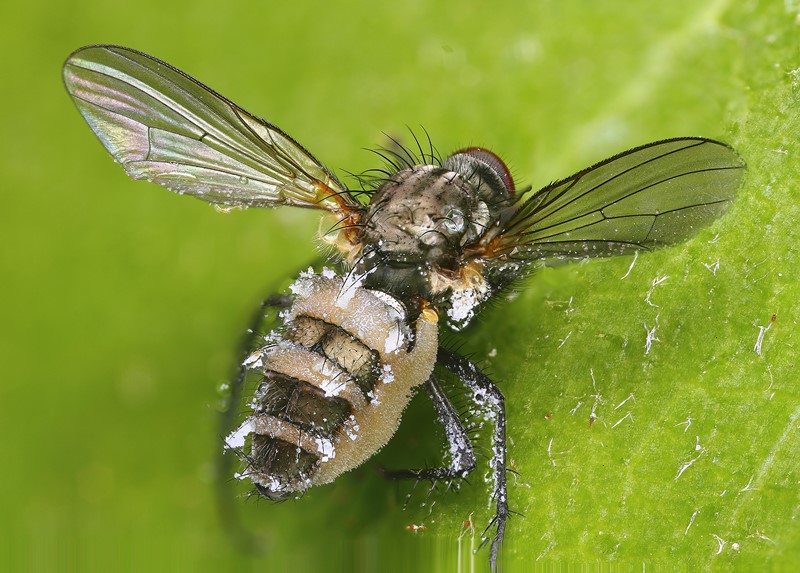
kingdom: Fungi
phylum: Entomophthoromycota
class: Entomophthoromycetes
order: Entomophthorales
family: Entomophthoraceae
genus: Entomophthora
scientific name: Entomophthora muscae
